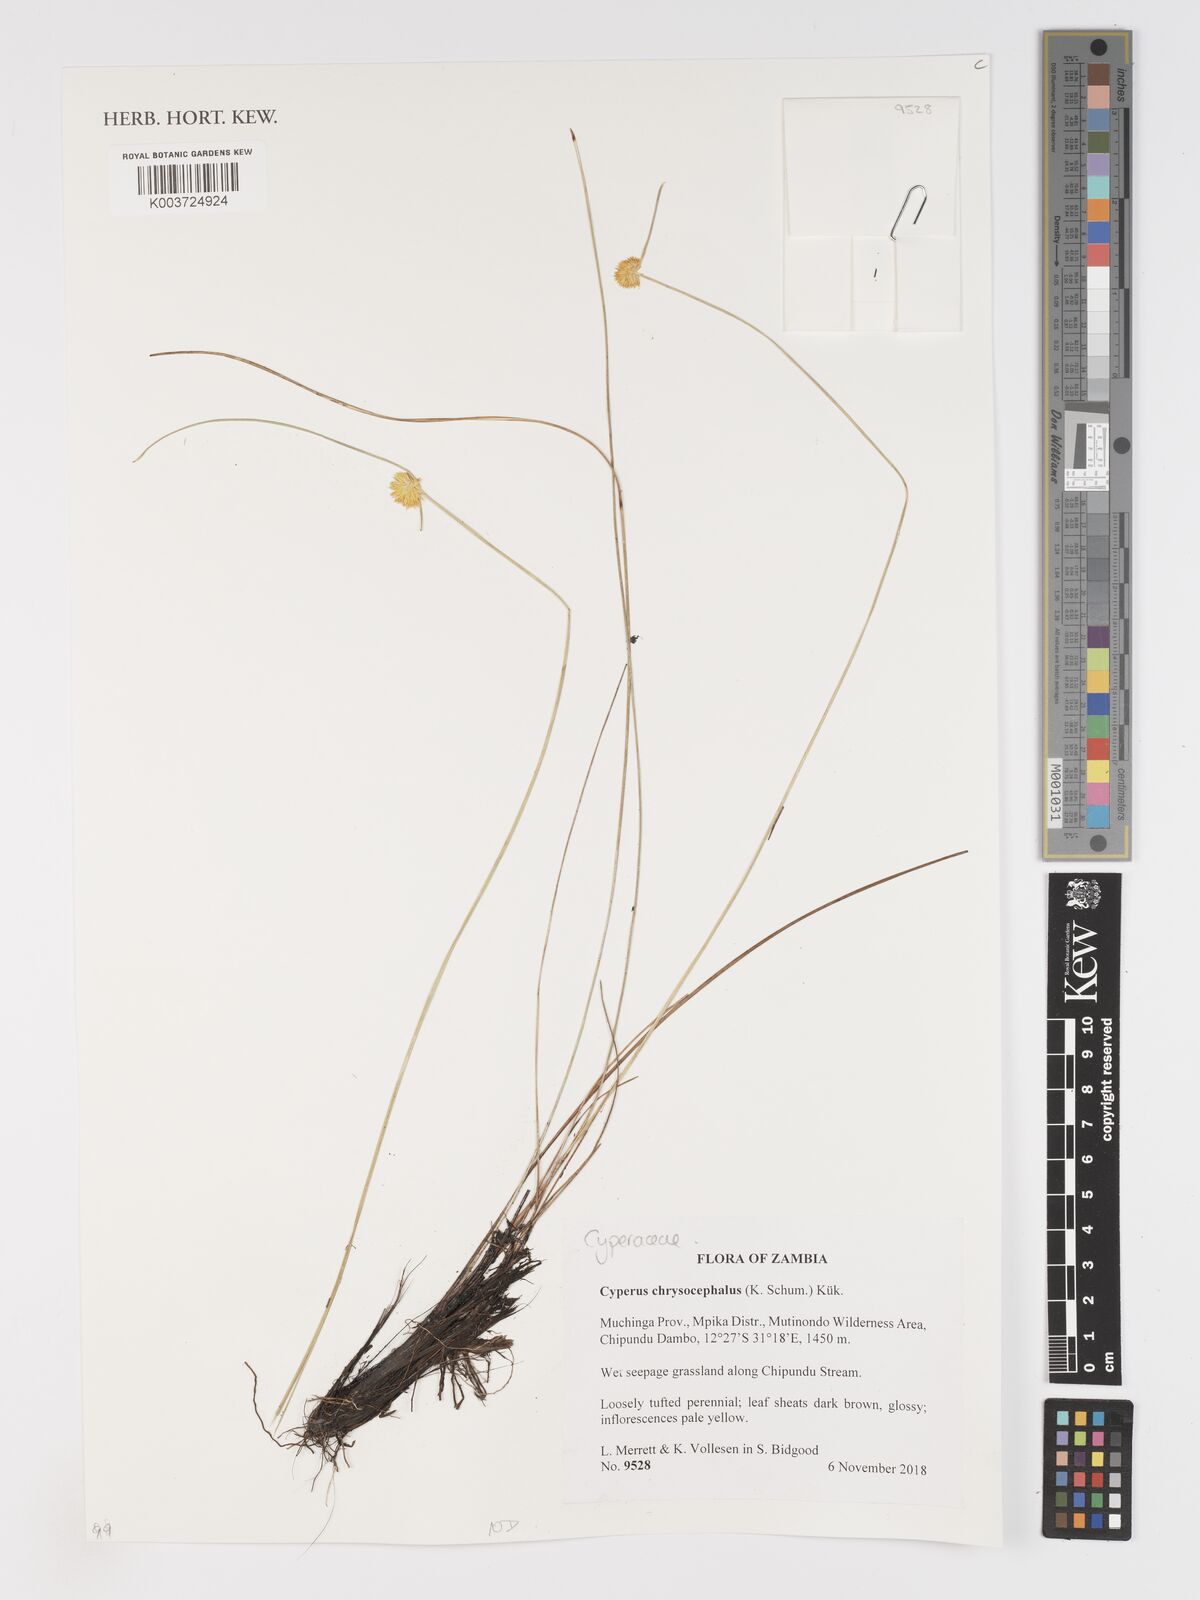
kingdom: Plantae
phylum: Tracheophyta
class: Liliopsida
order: Poales
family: Cyperaceae
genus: Cyperus
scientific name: Cyperus chrysocephalus
